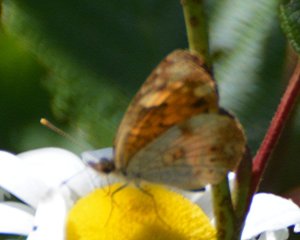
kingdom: Animalia
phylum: Arthropoda
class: Insecta
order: Lepidoptera
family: Nymphalidae
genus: Phyciodes
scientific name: Phyciodes tharos
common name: Northern Crescent
